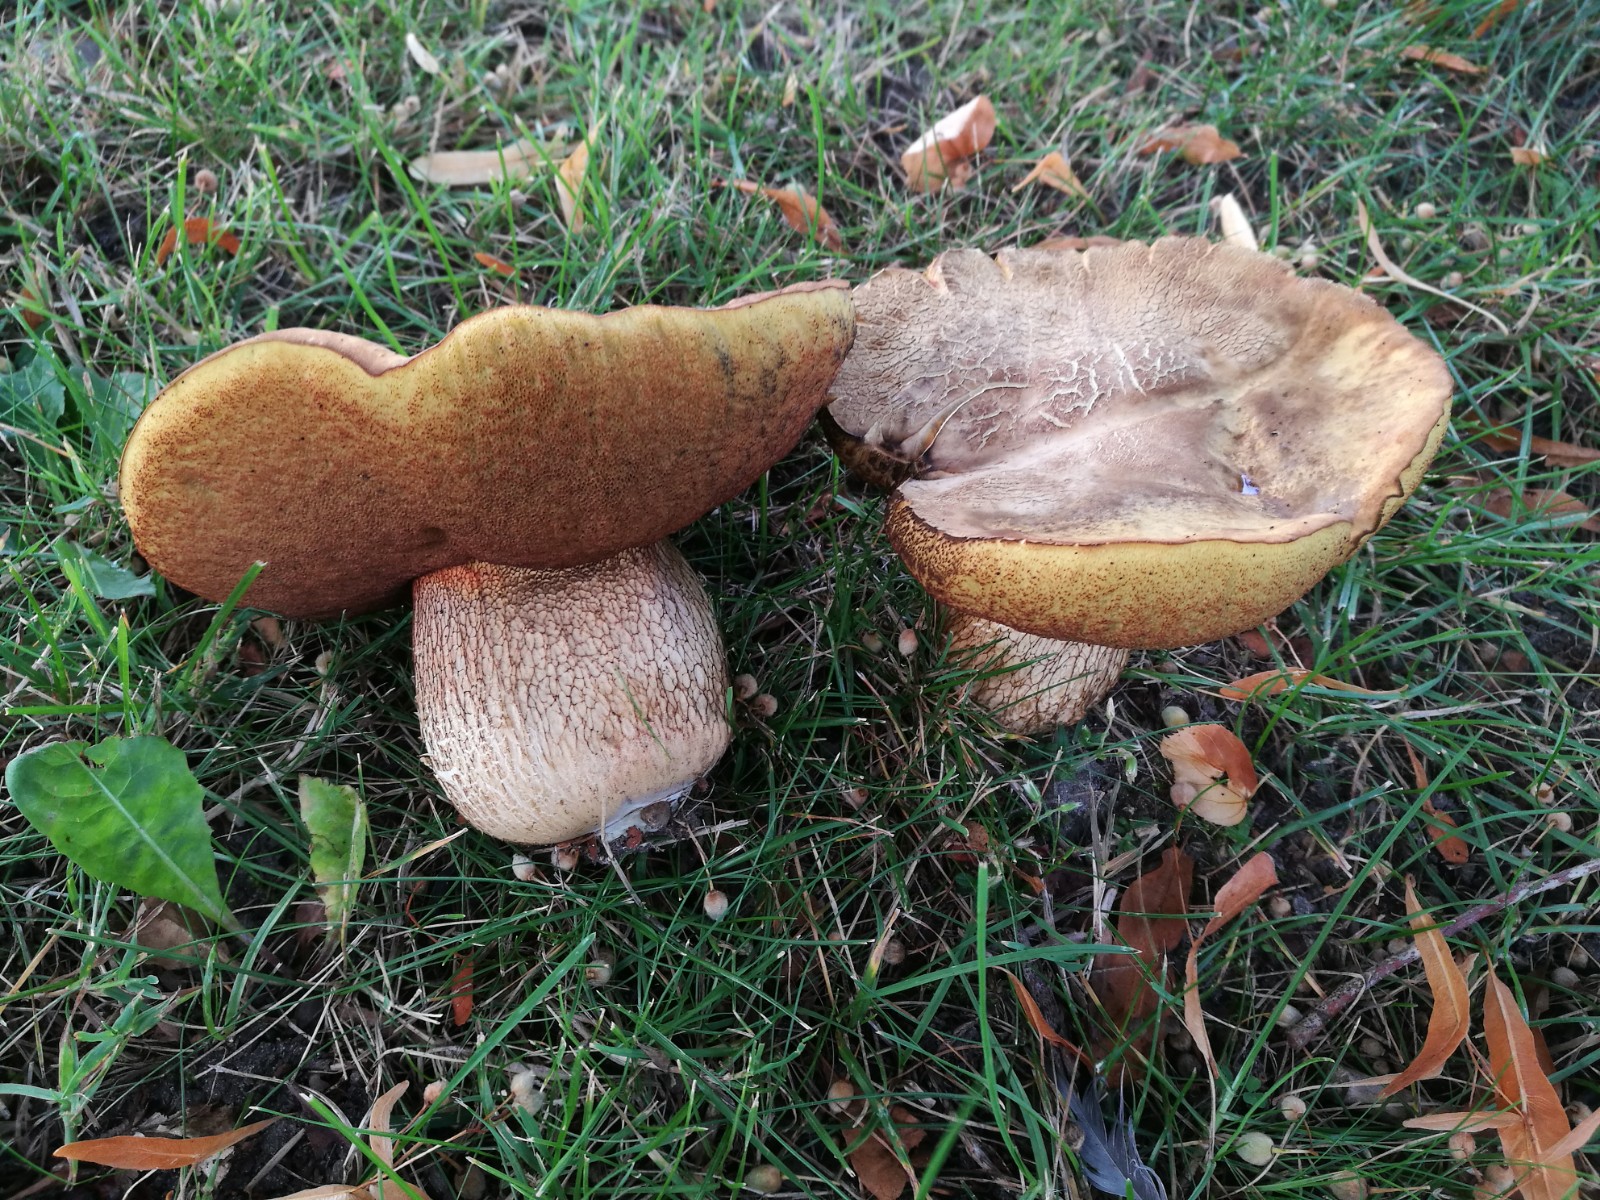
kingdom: Fungi
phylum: Basidiomycota
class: Agaricomycetes
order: Boletales
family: Boletaceae
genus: Suillellus
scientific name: Suillellus luridus
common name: netstokket indigorørhat
